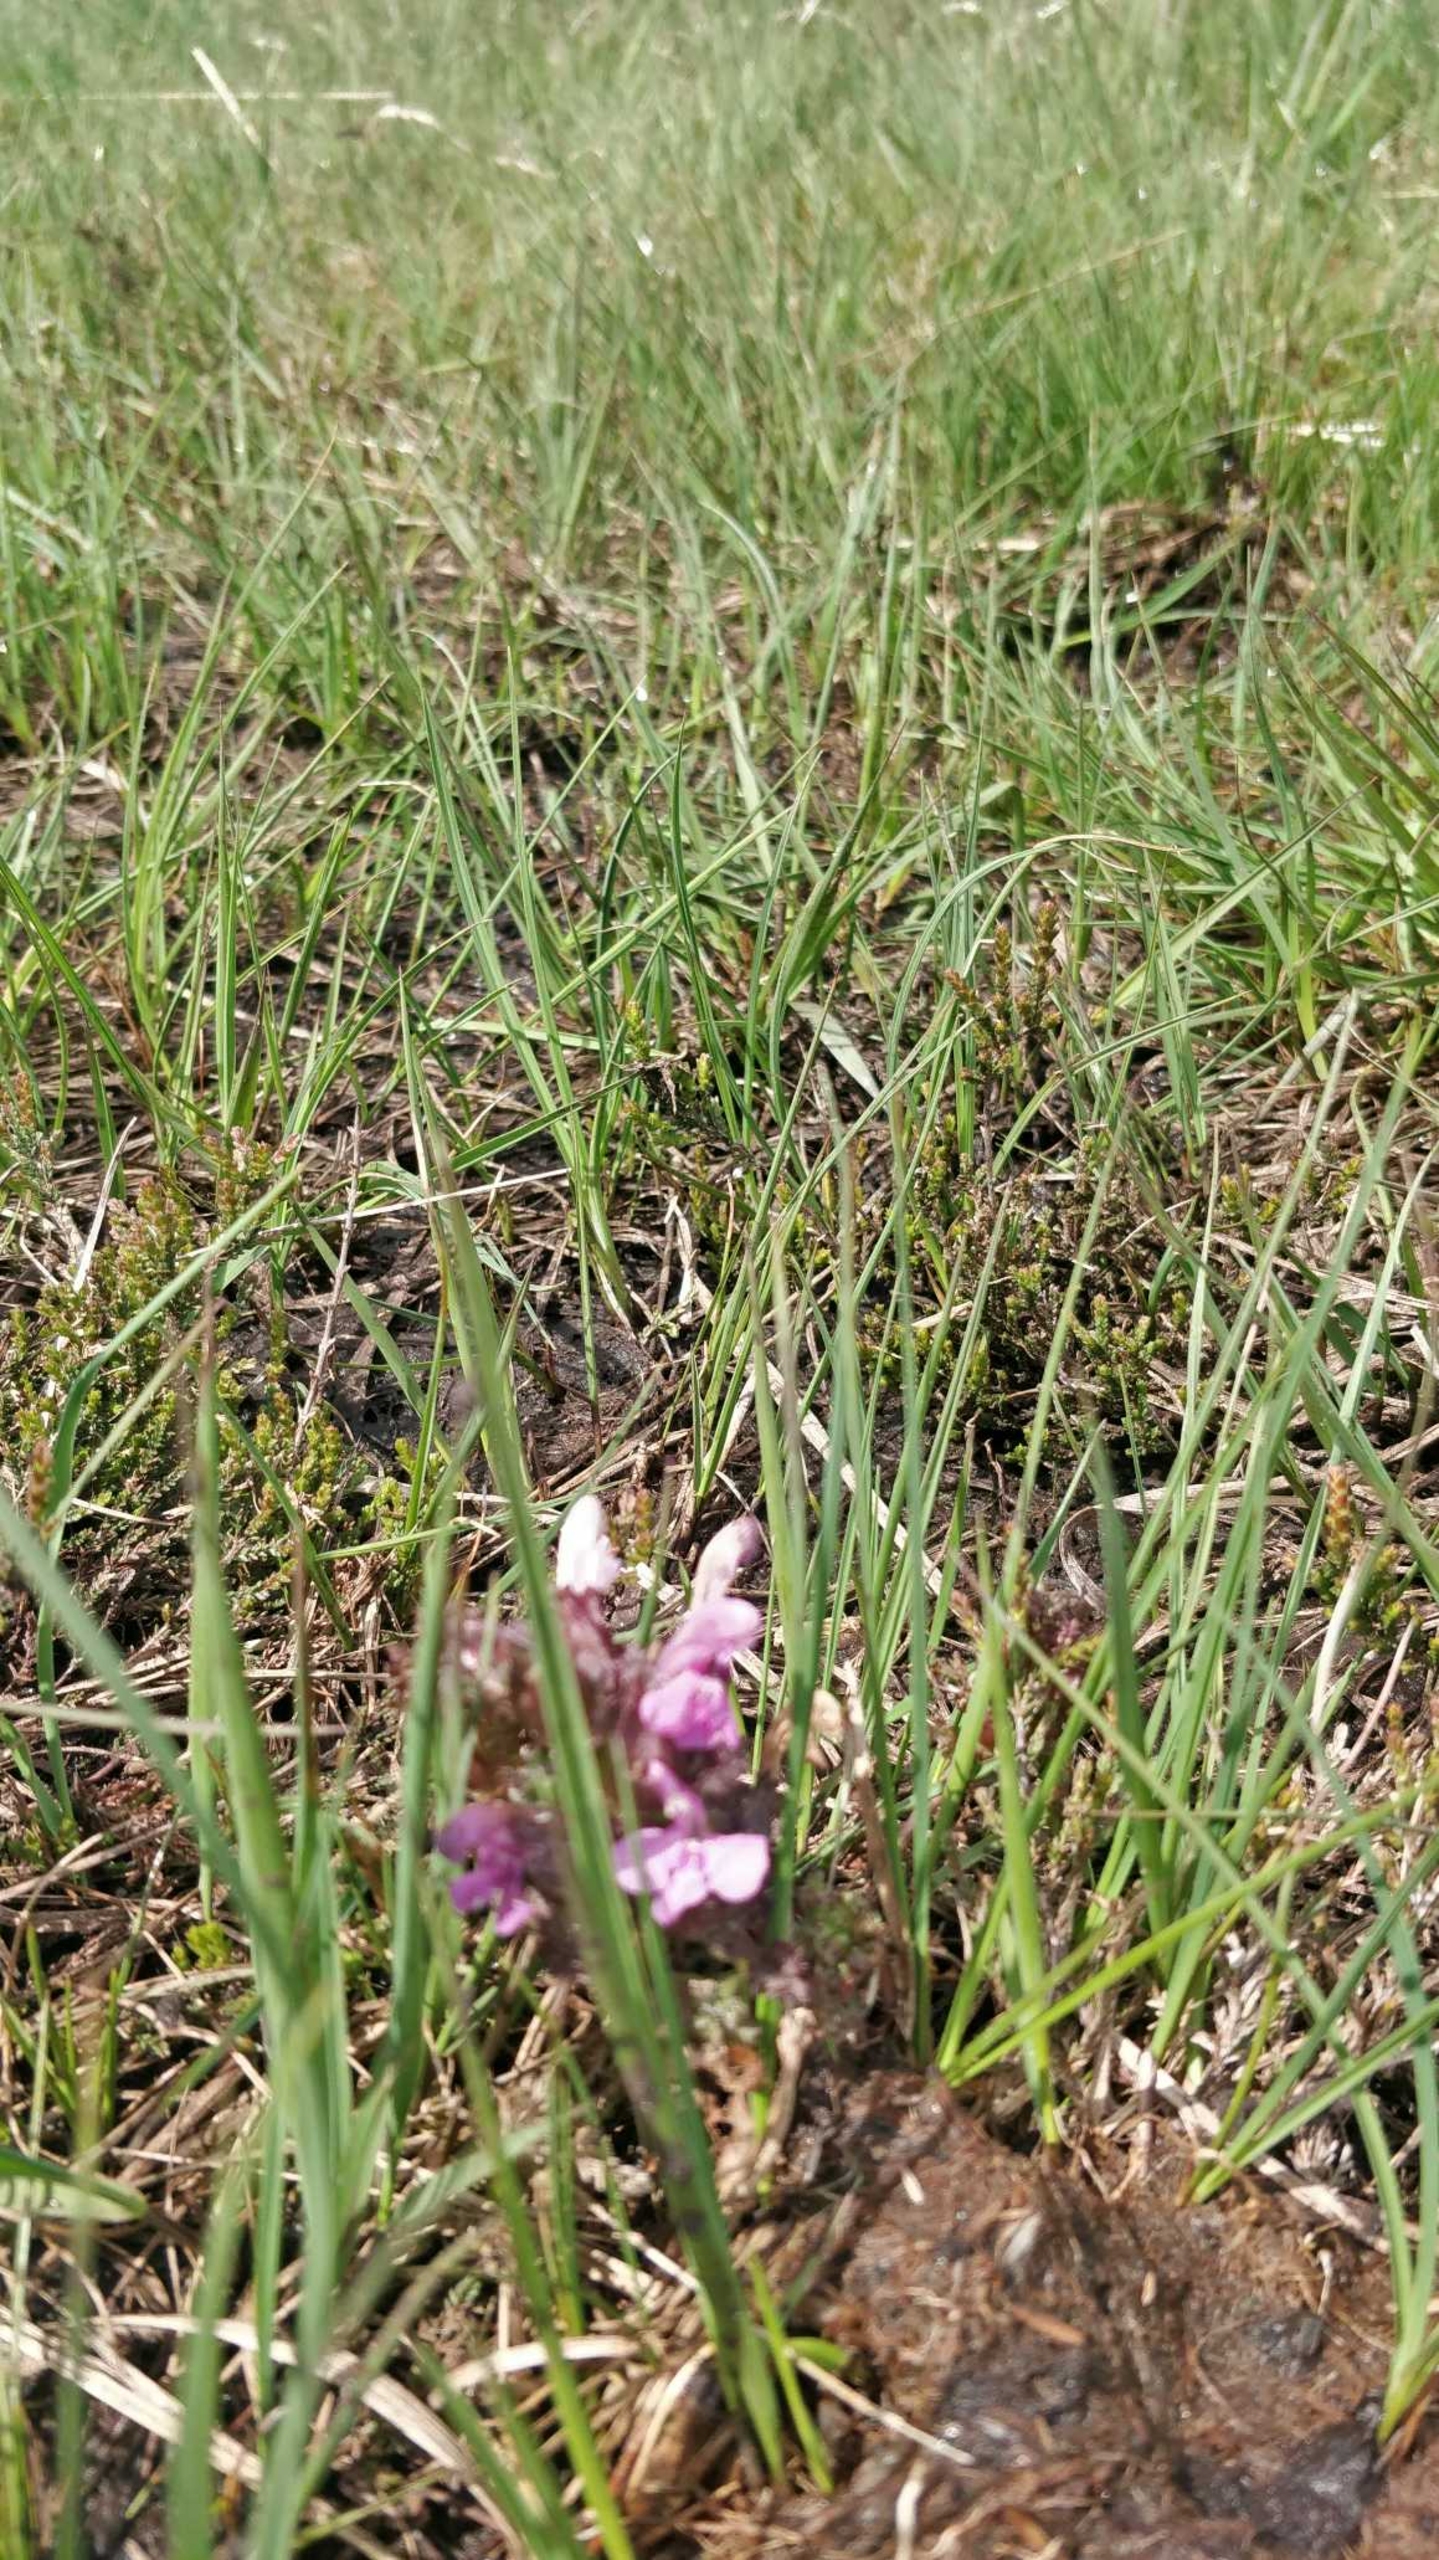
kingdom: Plantae
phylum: Tracheophyta
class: Magnoliopsida
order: Lamiales
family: Orobanchaceae
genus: Pedicularis
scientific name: Pedicularis sylvatica
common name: Mose-troldurt
